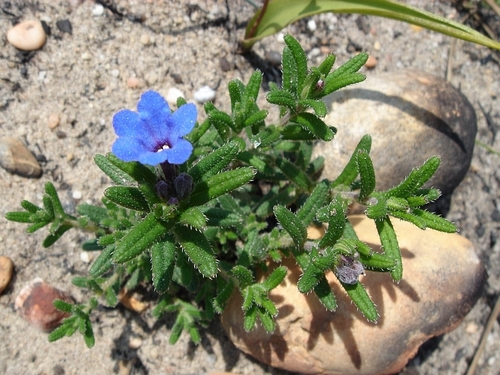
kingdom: Plantae
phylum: Tracheophyta
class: Magnoliopsida
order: Boraginales
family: Boraginaceae
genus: Glandora
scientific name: Glandora diffusa
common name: Shrubby-gromwell
